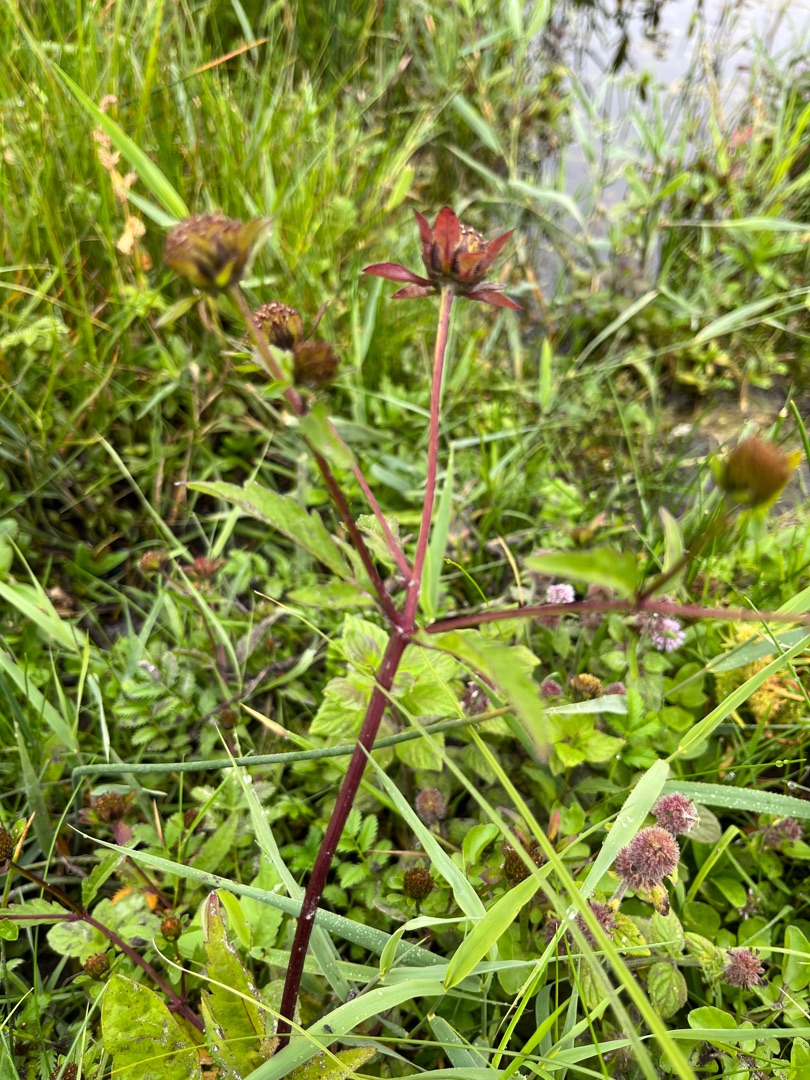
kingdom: Plantae
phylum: Tracheophyta
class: Magnoliopsida
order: Asterales
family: Asteraceae
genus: Bidens
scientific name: Bidens tripartita
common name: Fliget brøndsel
